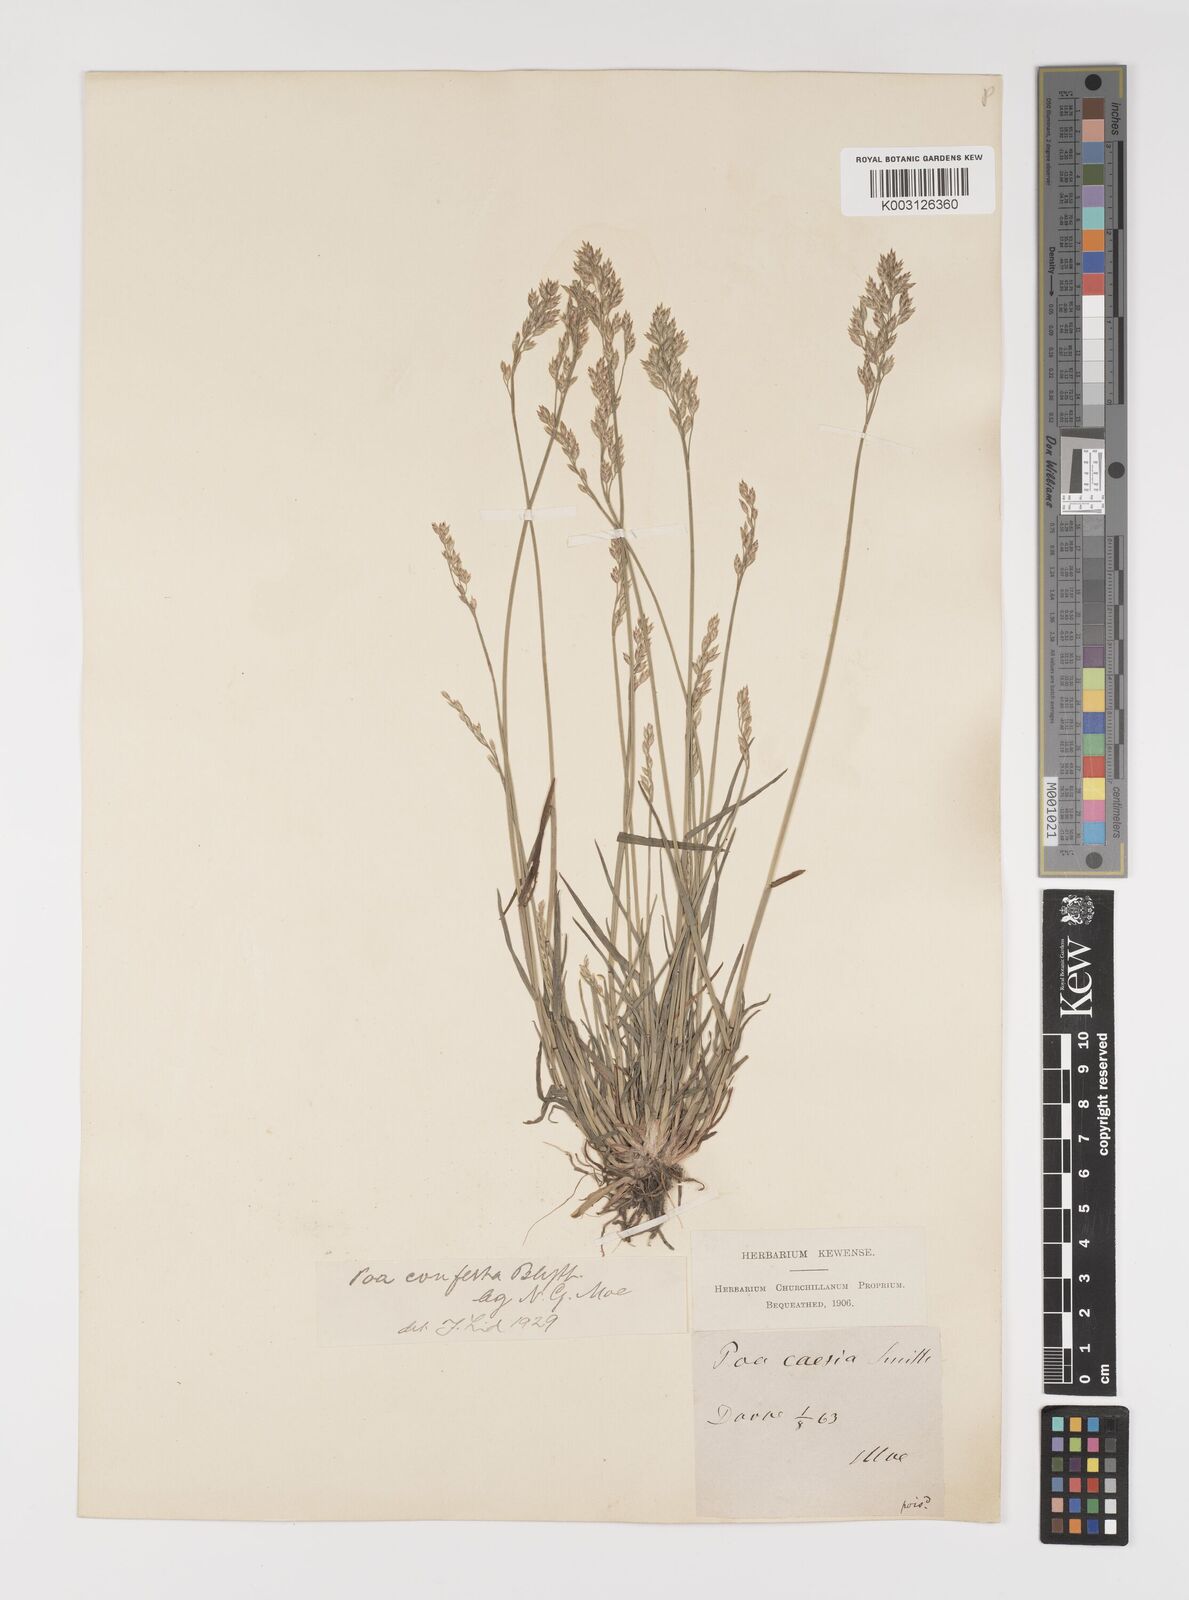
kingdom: Plantae
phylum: Tracheophyta
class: Liliopsida
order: Poales
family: Poaceae
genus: Poa
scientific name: Poa glauca
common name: Glaucous bluegrass
